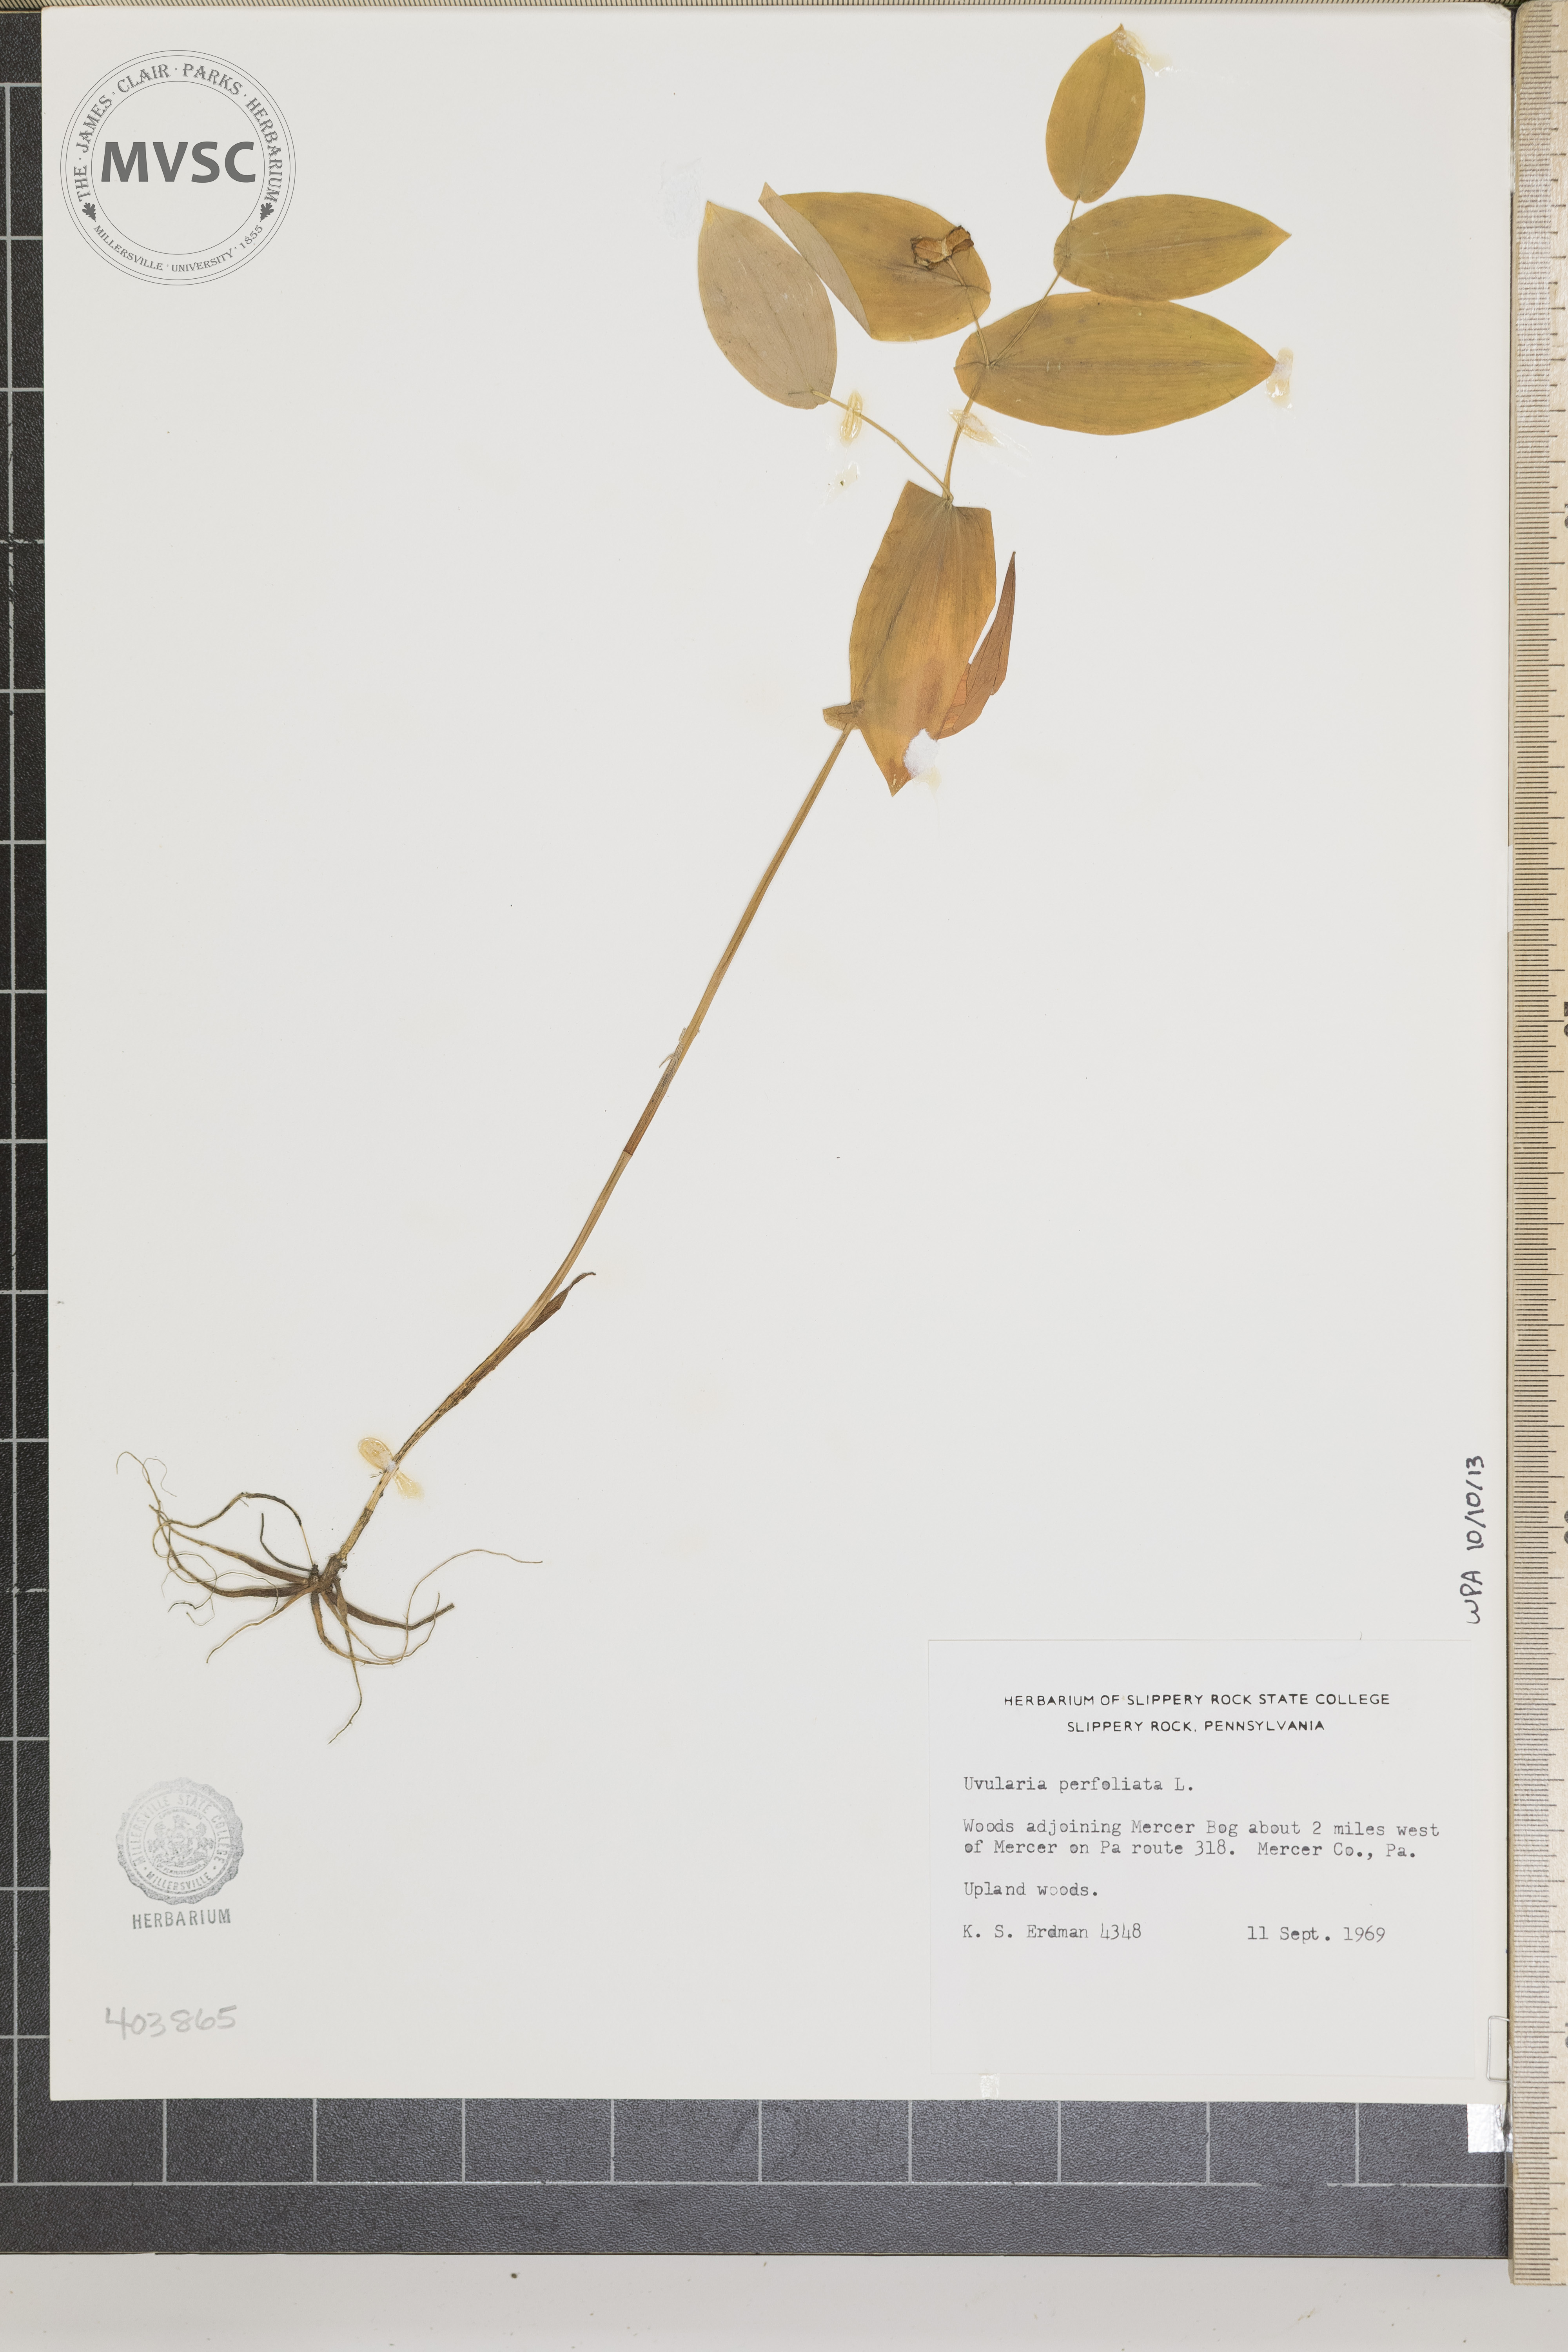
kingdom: Plantae
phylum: Tracheophyta
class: Liliopsida
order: Liliales
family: Colchicaceae
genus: Uvularia
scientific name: Uvularia perfoliata
